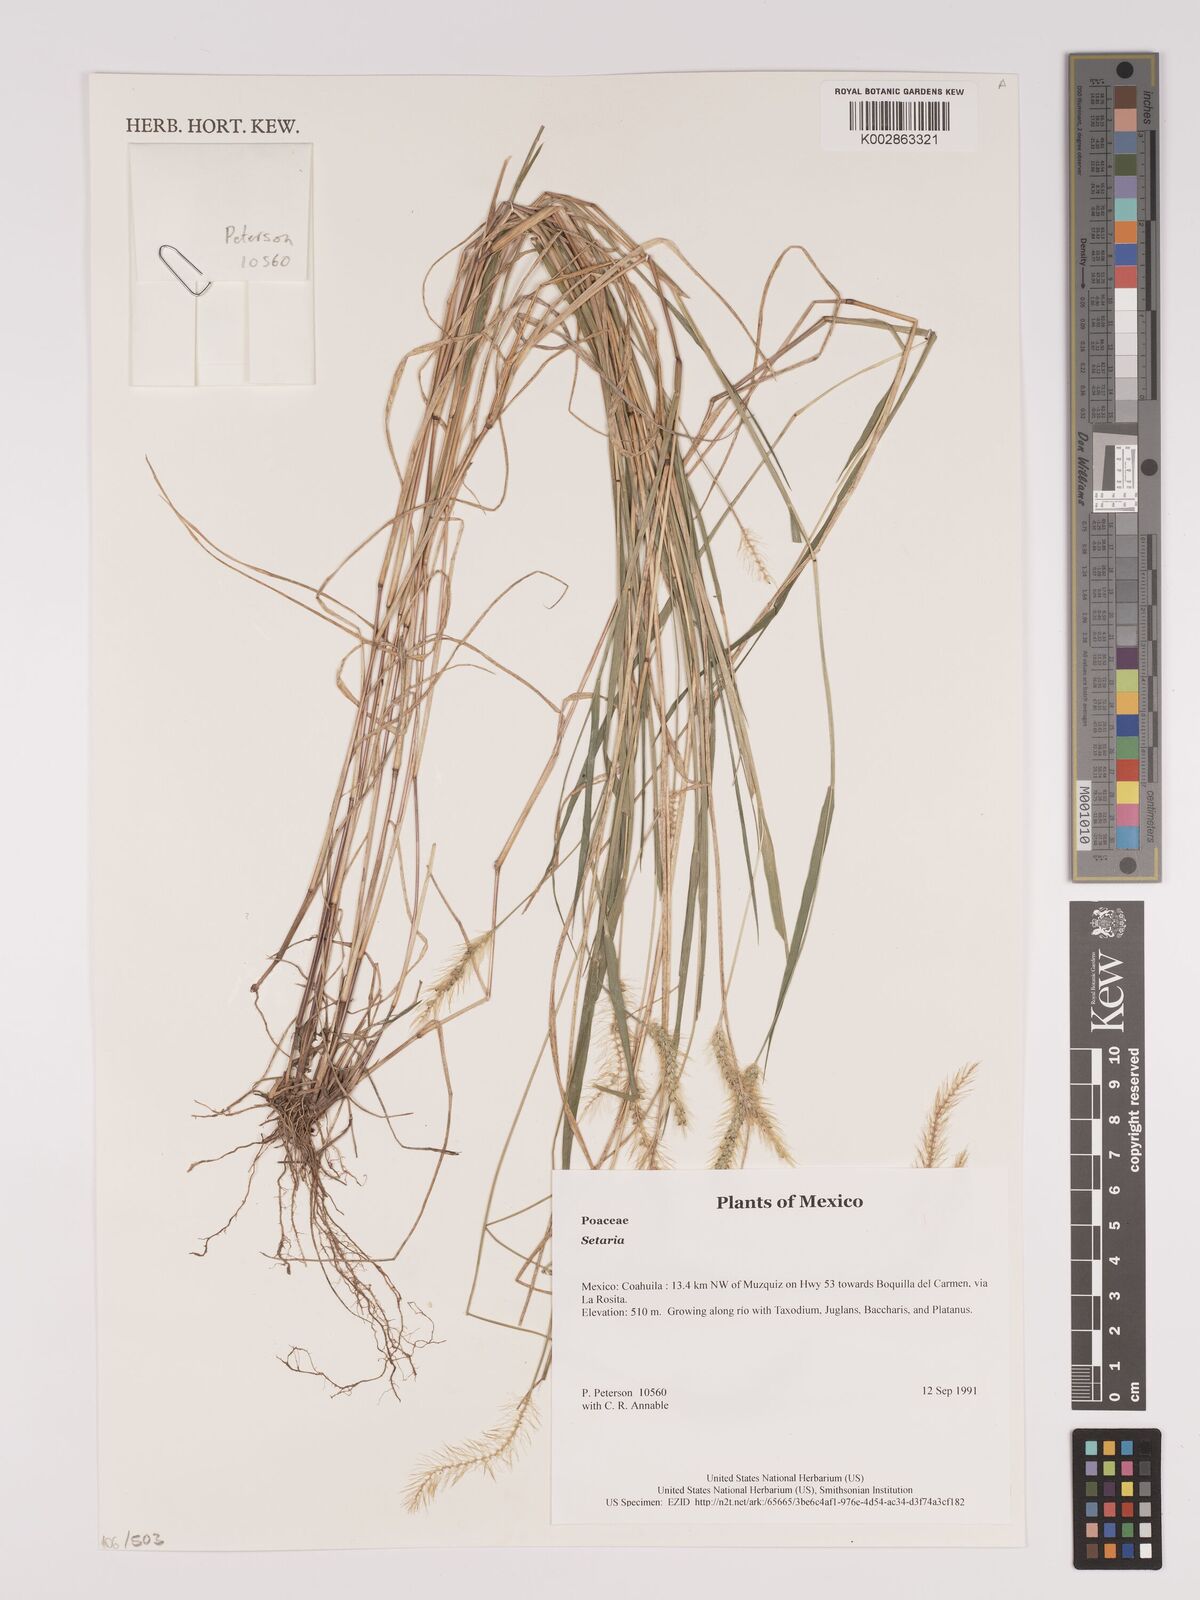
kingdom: Plantae
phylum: Tracheophyta
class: Liliopsida
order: Poales
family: Poaceae
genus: Setaria
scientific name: Setaria
